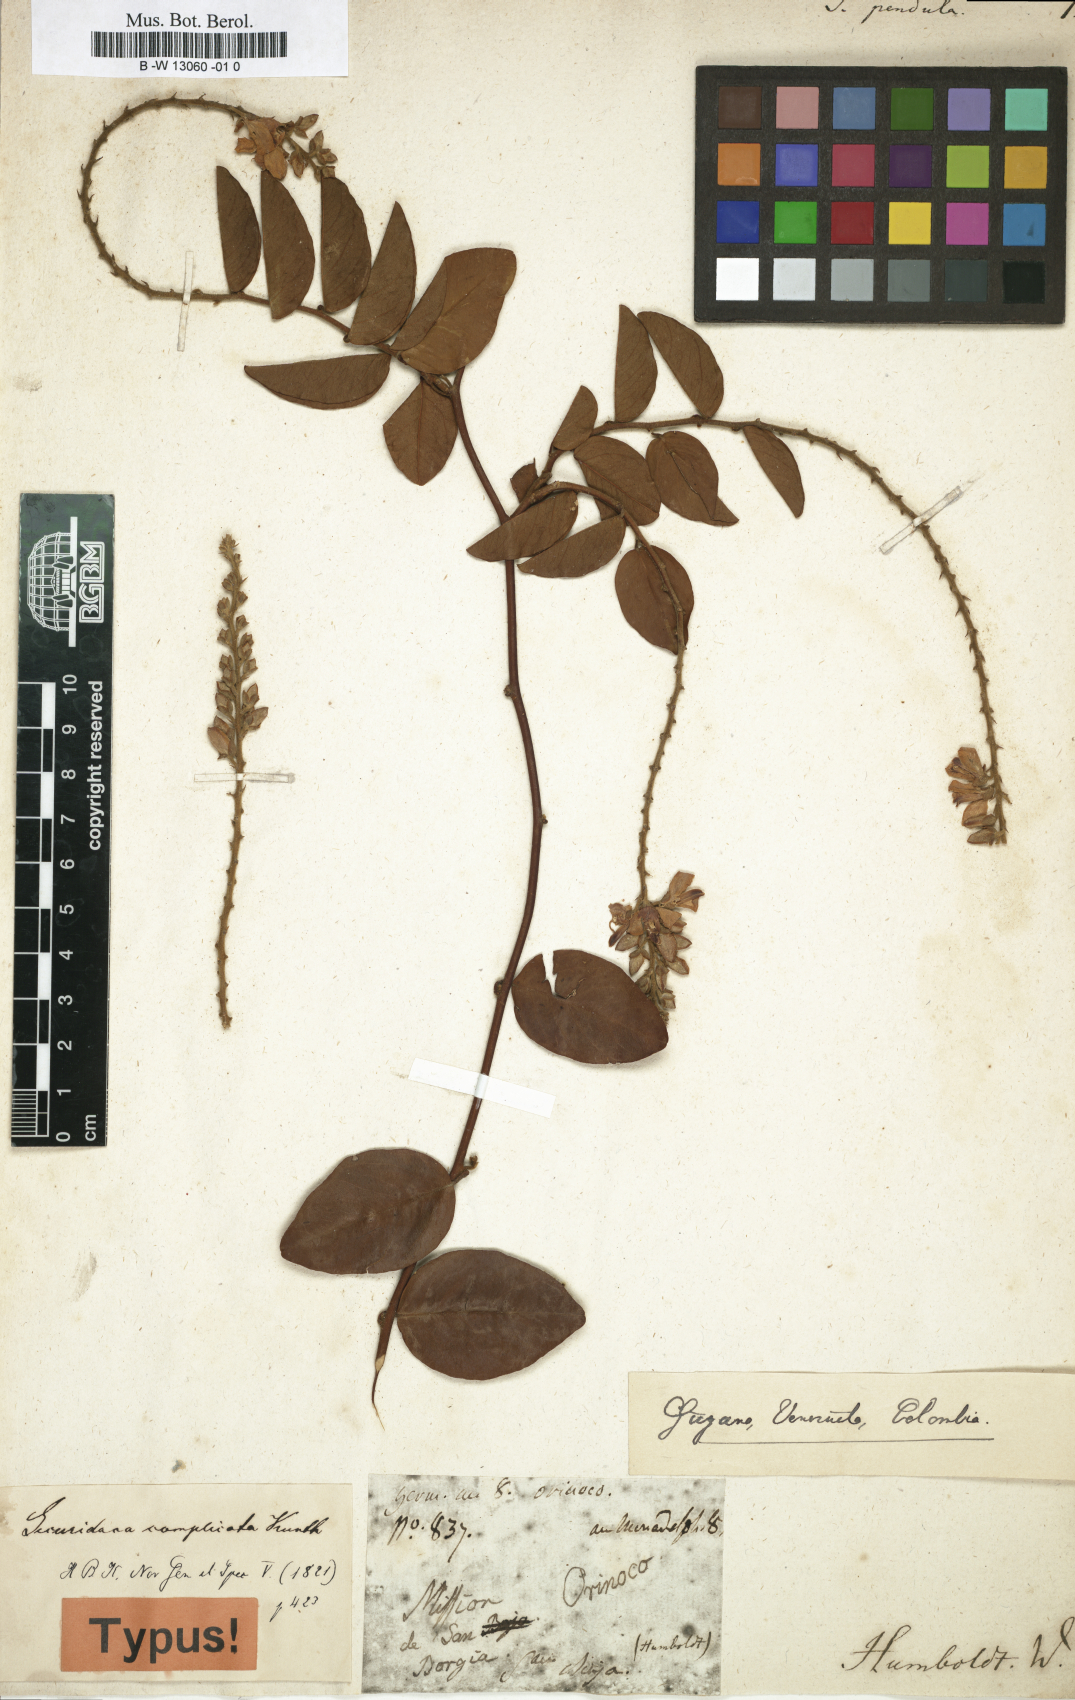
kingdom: Plantae
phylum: Tracheophyta
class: Magnoliopsida
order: Fabales
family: Polygalaceae
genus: Securidaca
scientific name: Securidaca pendula
